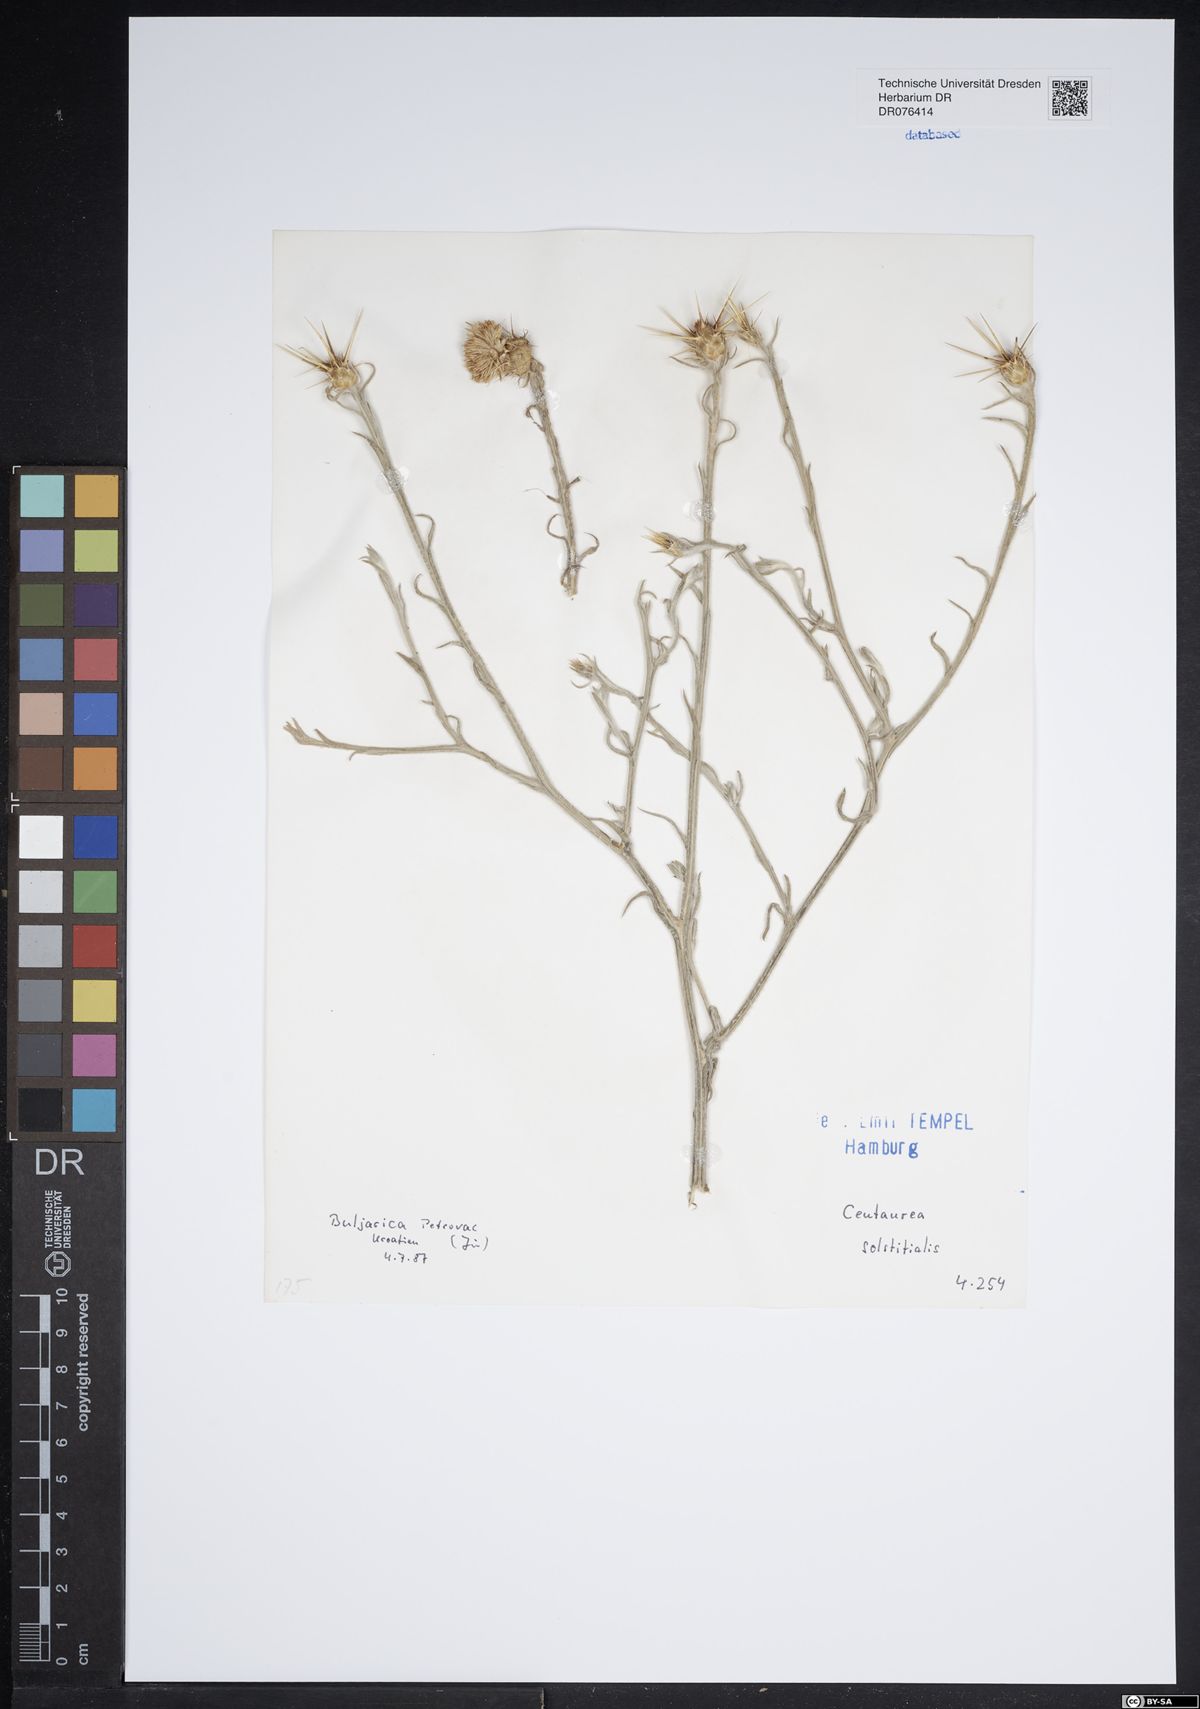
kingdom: Plantae
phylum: Tracheophyta
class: Magnoliopsida
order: Asterales
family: Asteraceae
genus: Centaurea
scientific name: Centaurea solstitialis
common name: Yellow star-thistle
